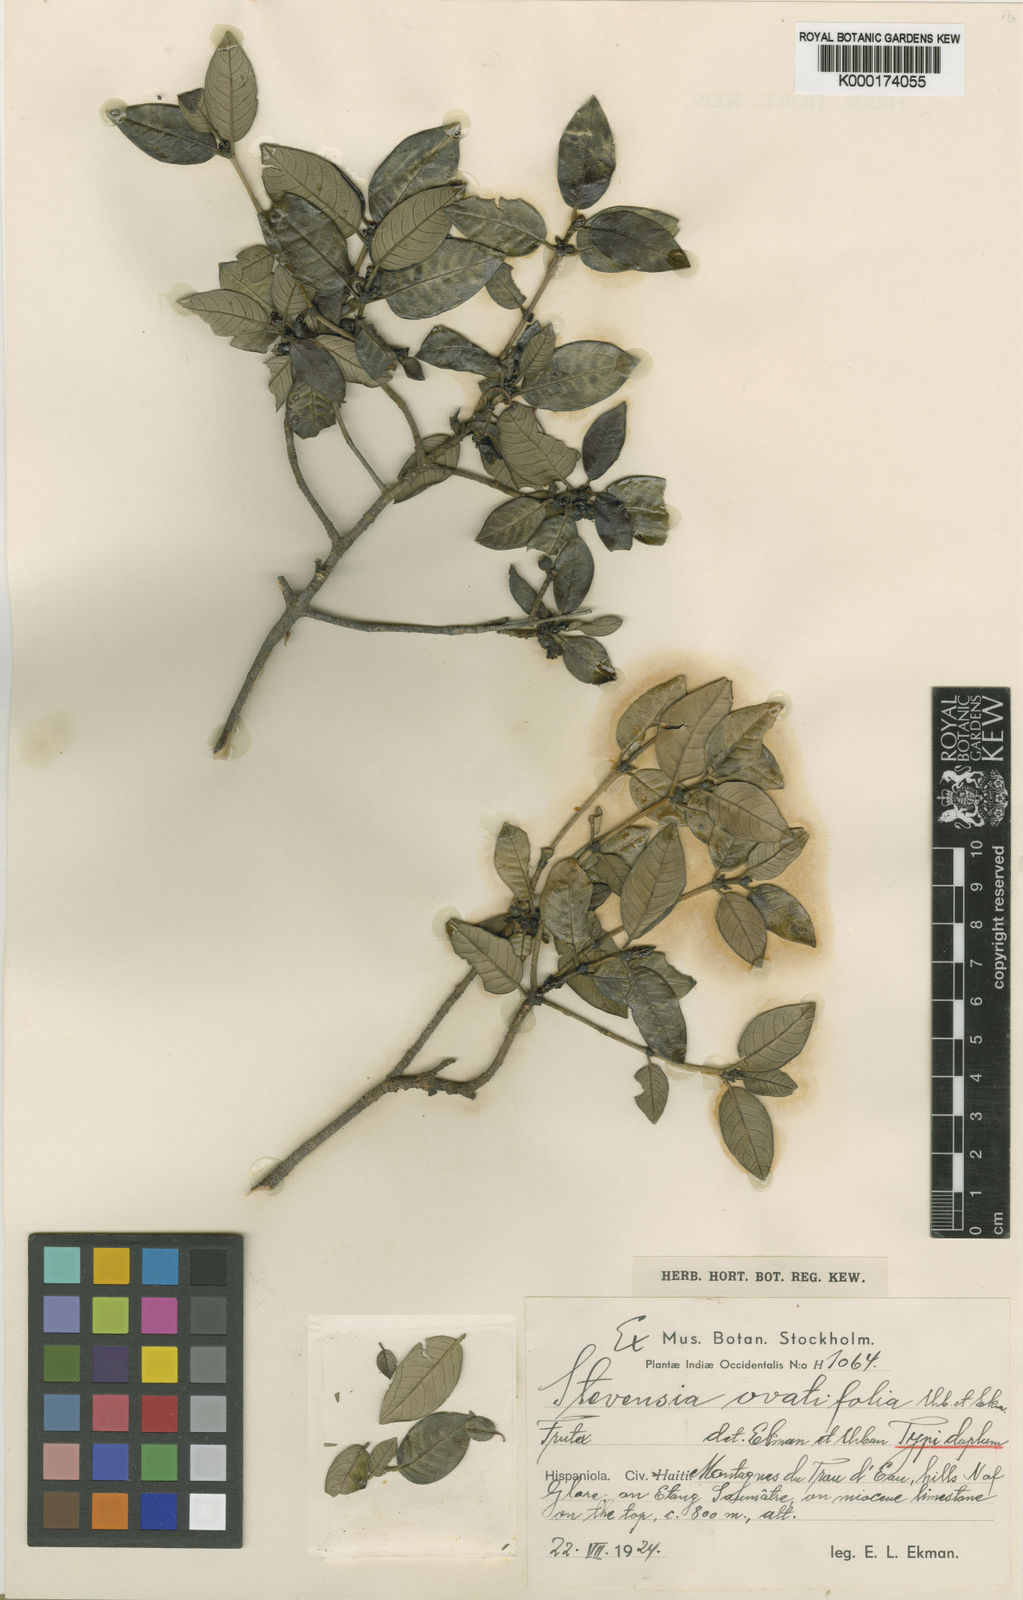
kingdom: Plantae
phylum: Tracheophyta
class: Magnoliopsida
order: Gentianales
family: Rubiaceae
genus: Stevensia
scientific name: Stevensia ovatifolia
